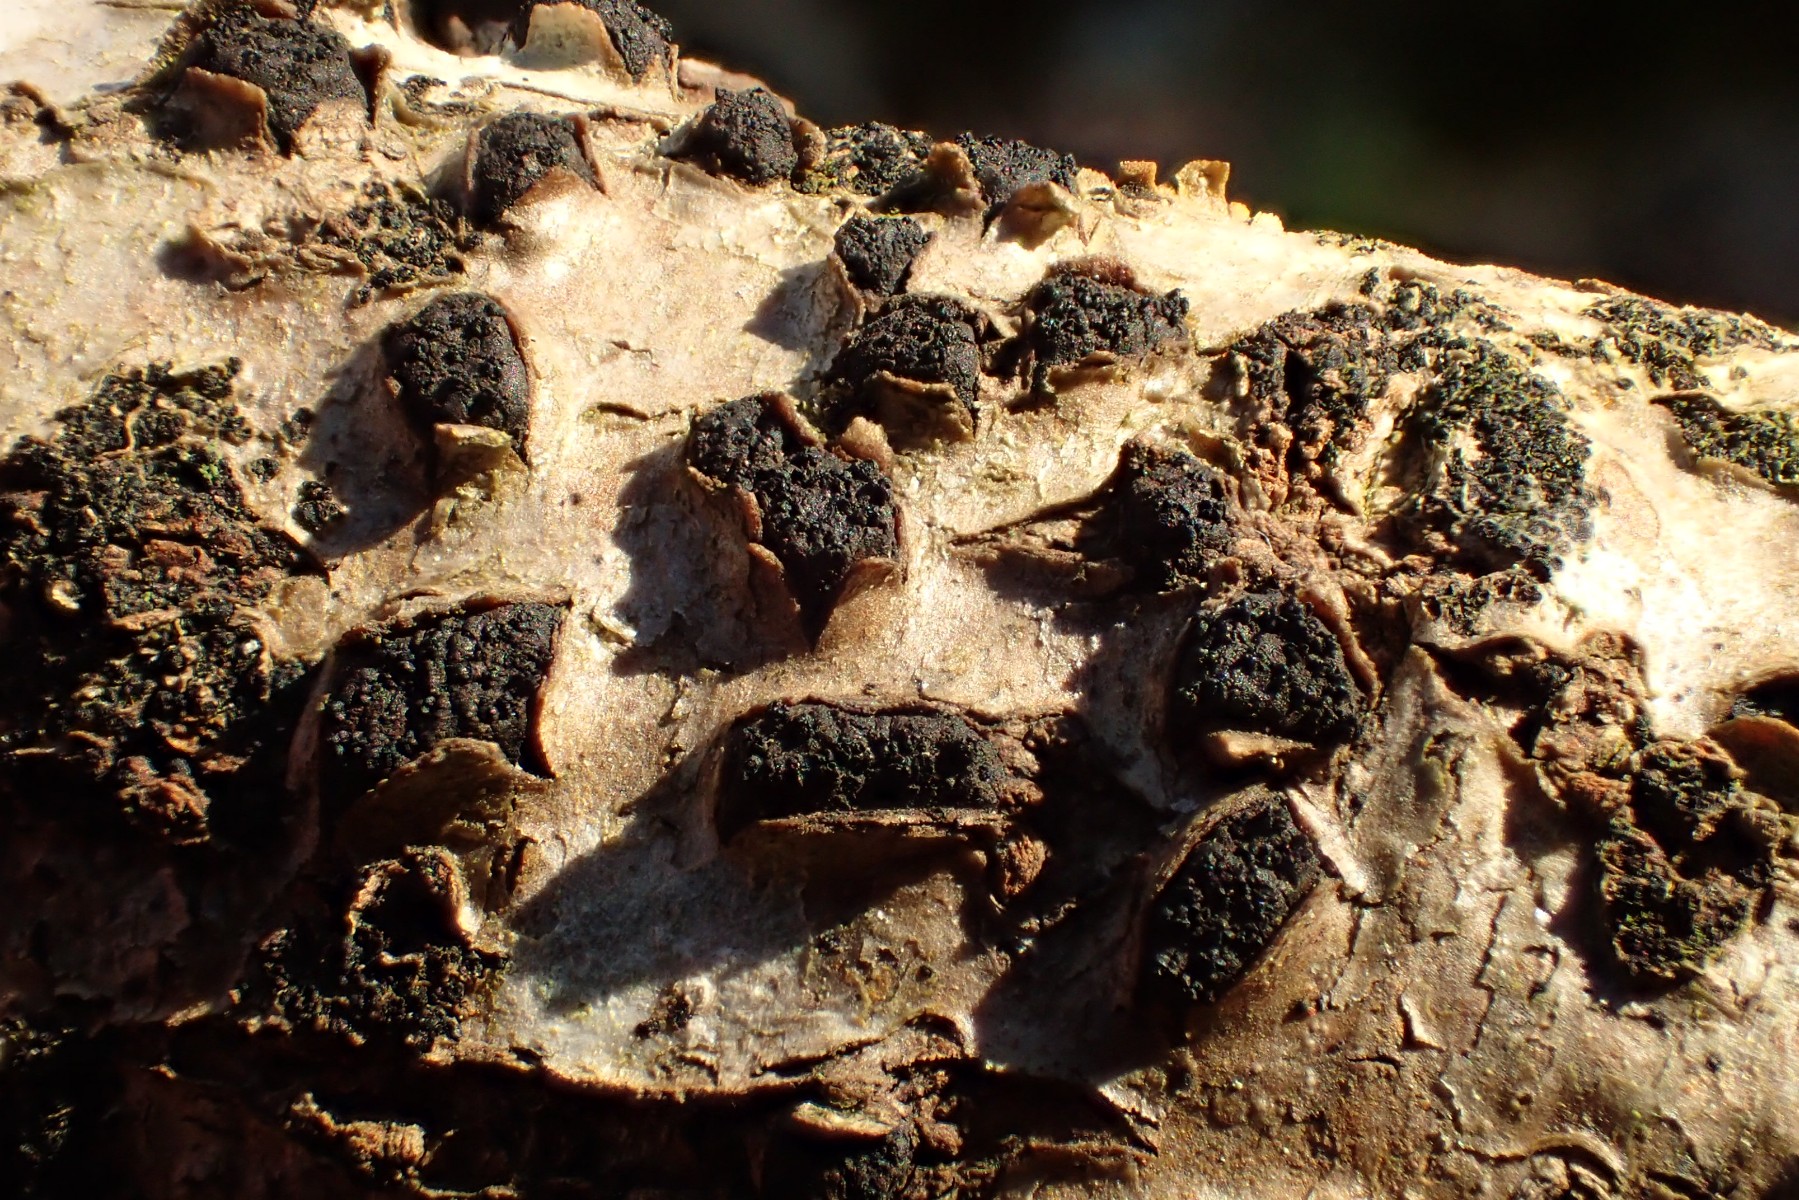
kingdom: Fungi
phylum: Ascomycota
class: Sordariomycetes
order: Xylariales
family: Diatrypaceae
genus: Diatrypella
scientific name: Diatrypella quercina
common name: ege-kulskorpe
